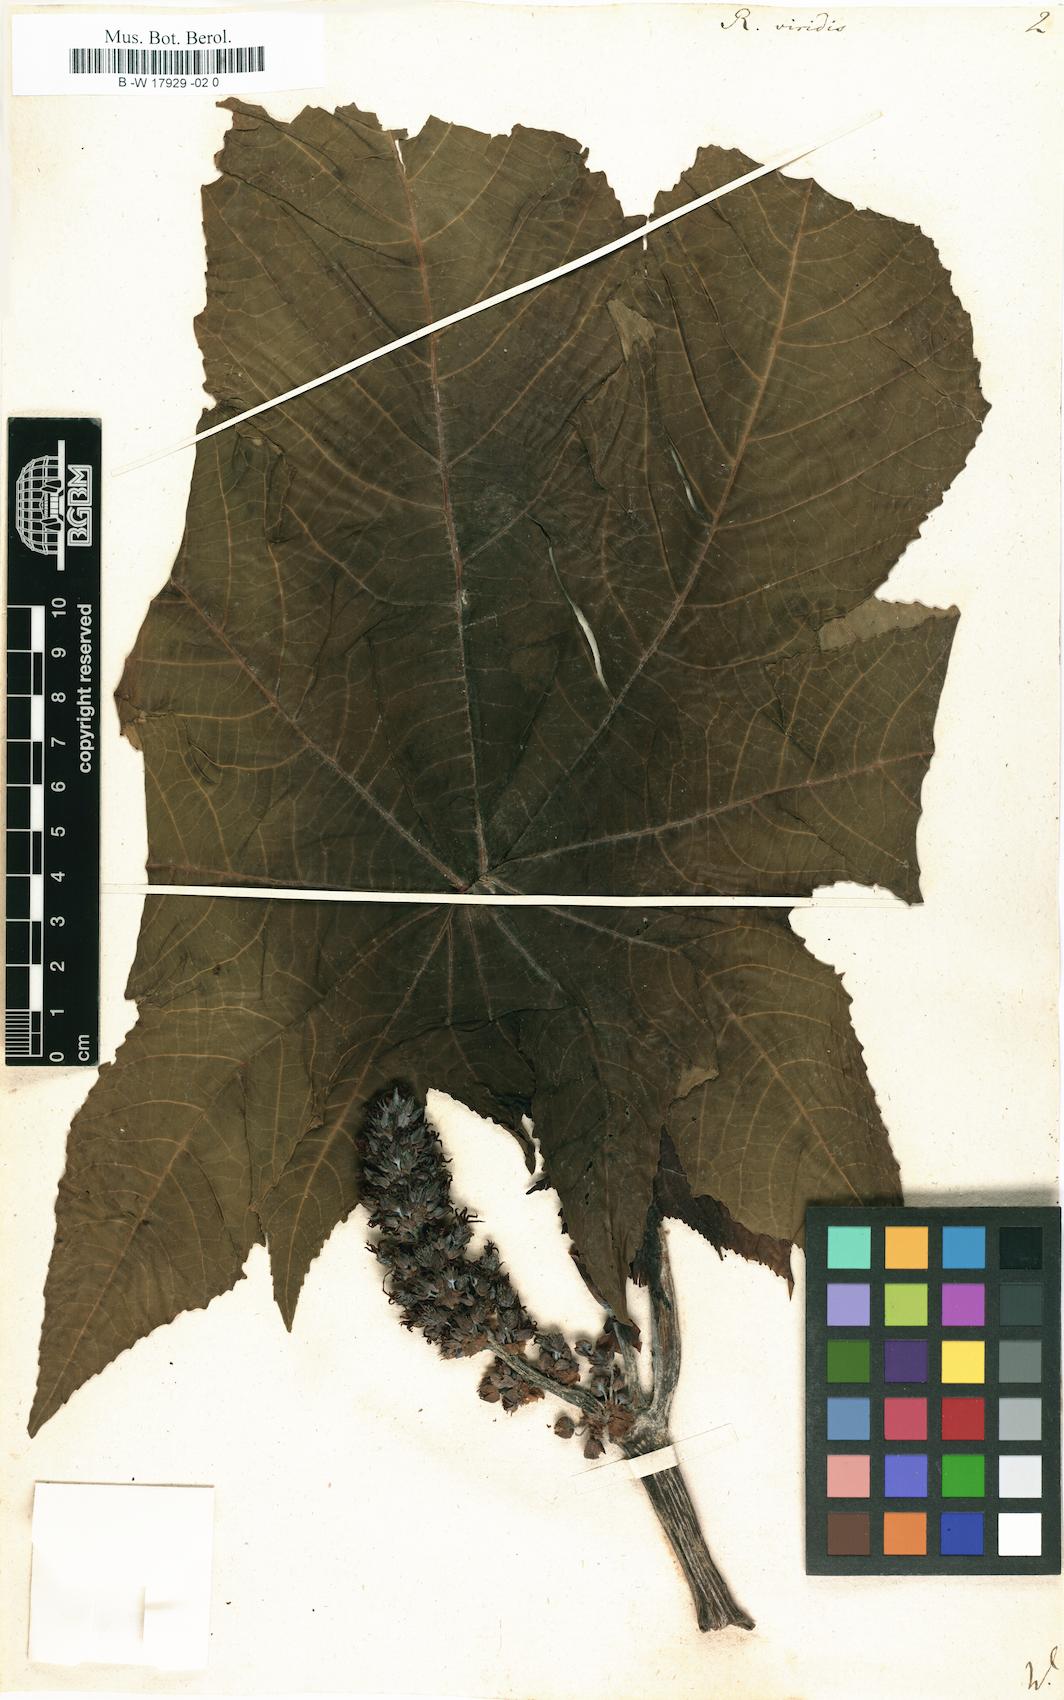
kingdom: Plantae
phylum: Tracheophyta
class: Magnoliopsida
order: Malpighiales
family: Euphorbiaceae
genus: Ricinus
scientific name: Ricinus communis
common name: Castor-oil-plant
